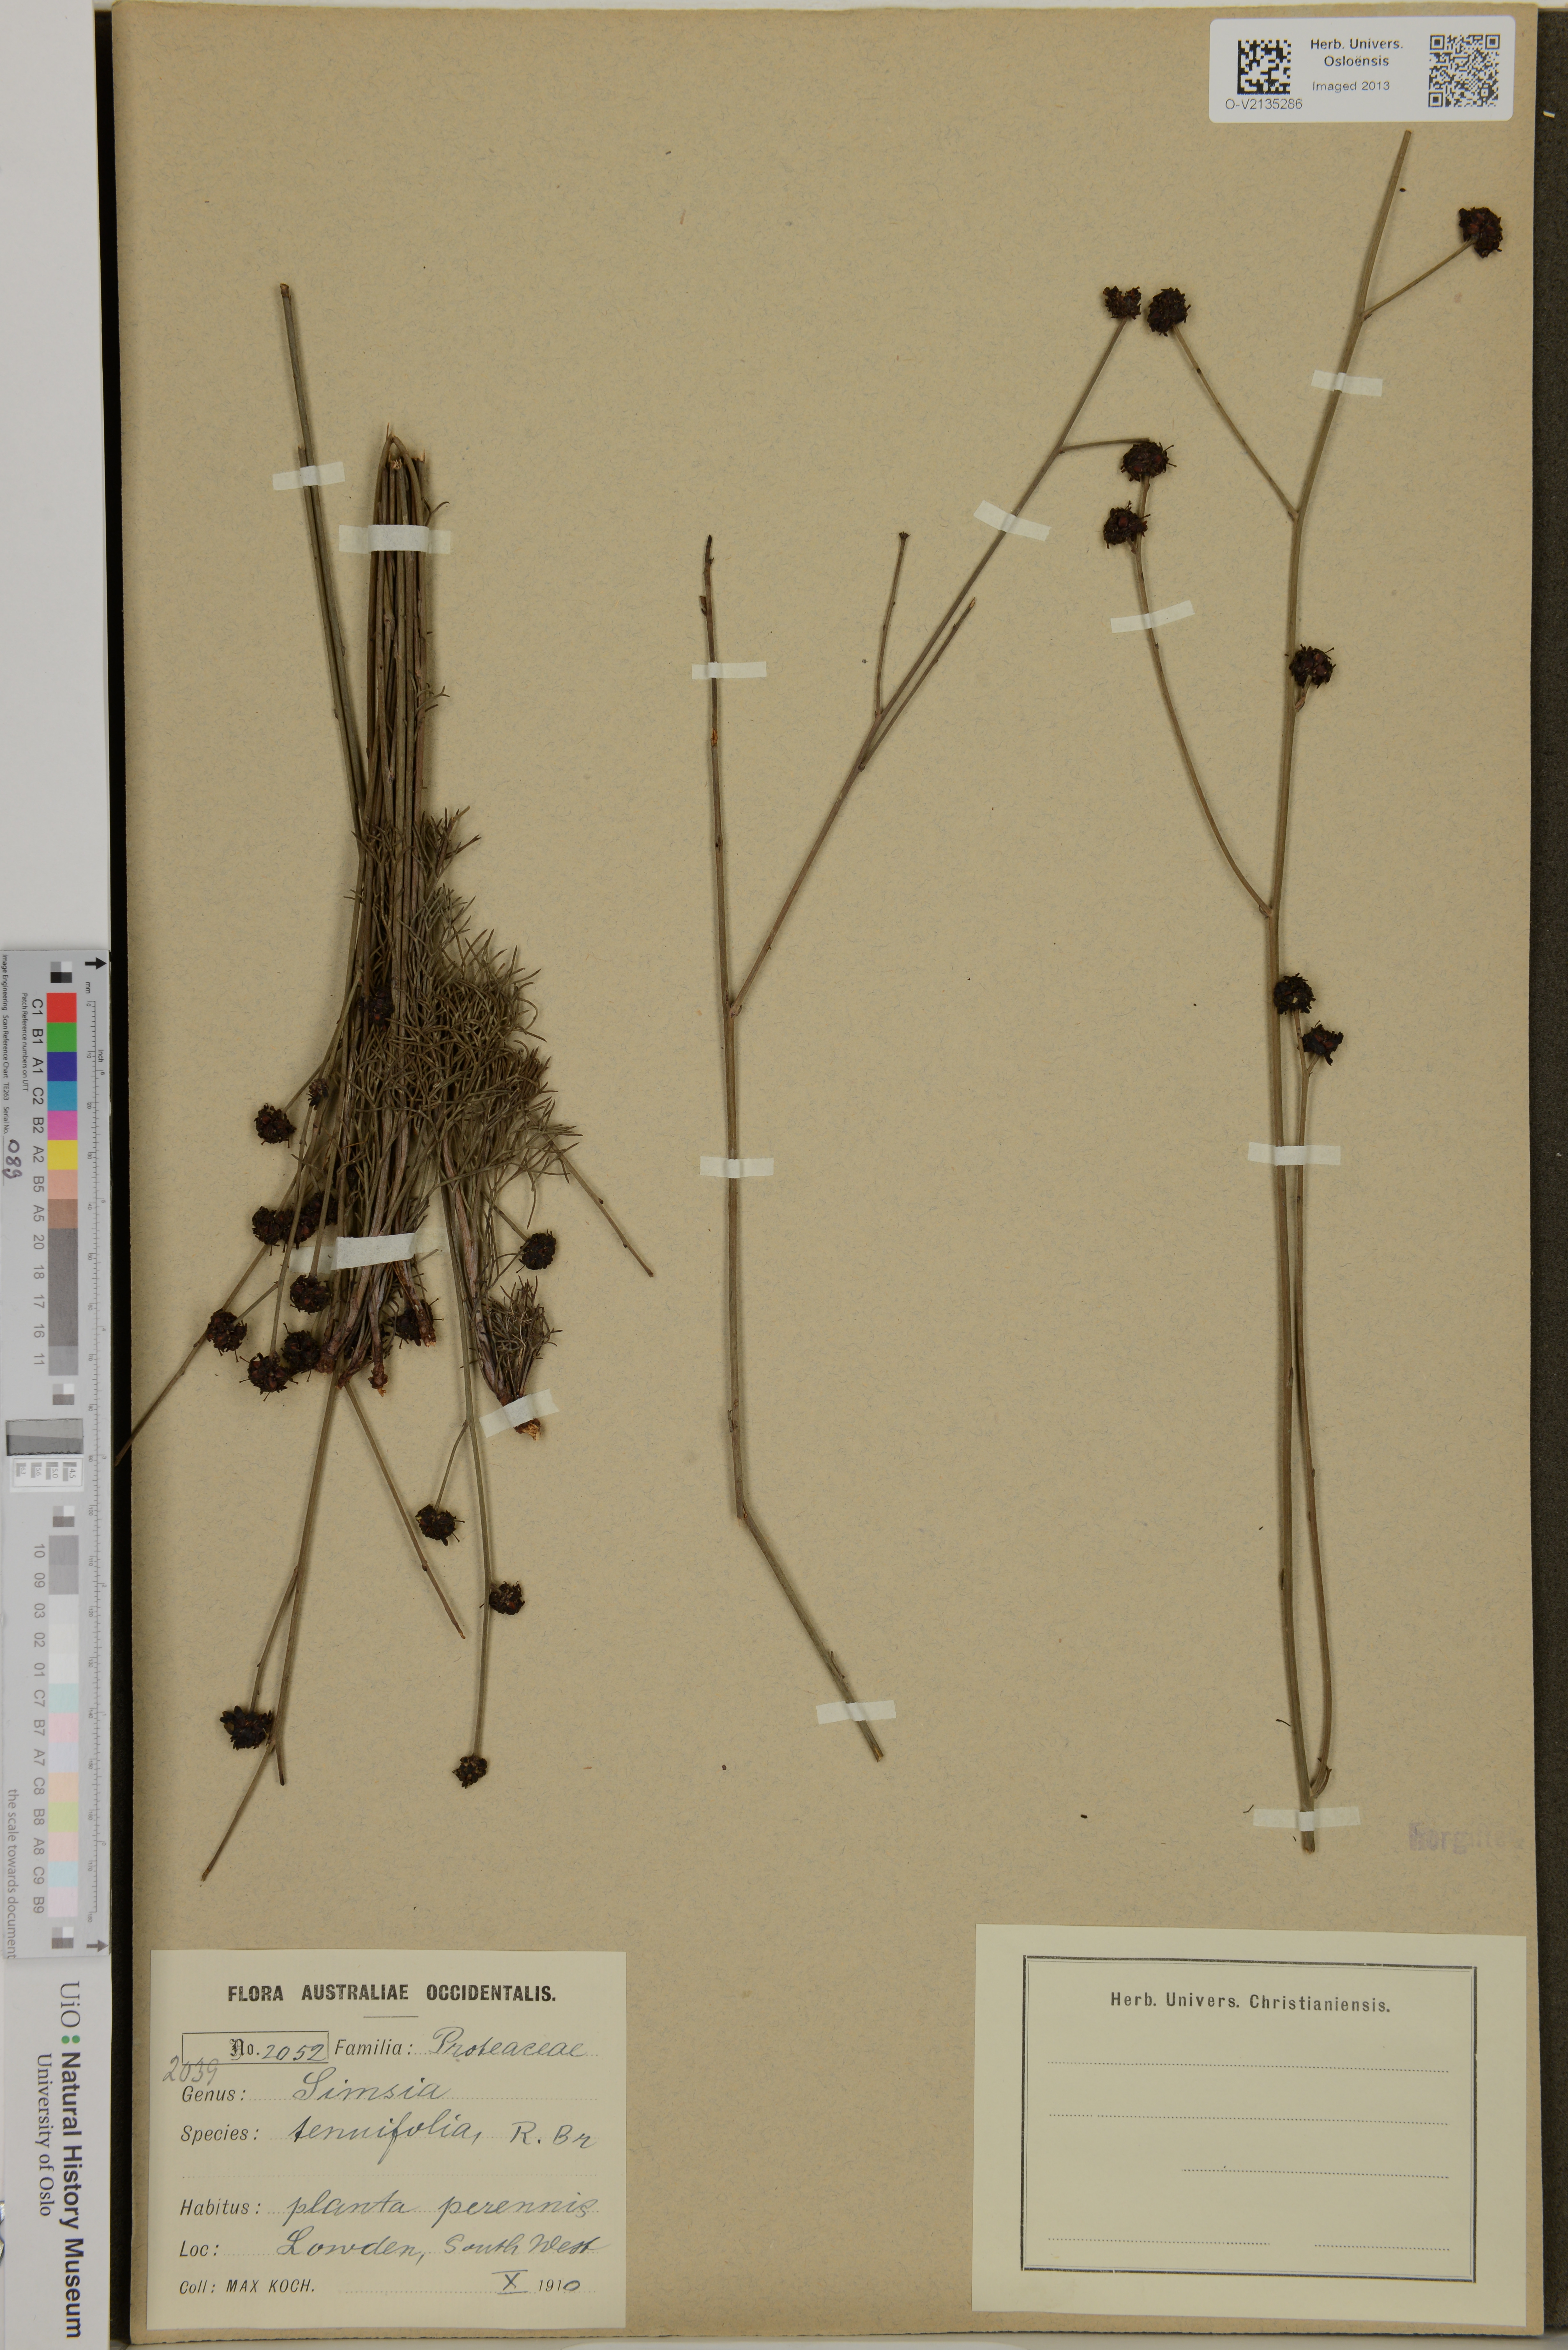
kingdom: Plantae
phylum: Tracheophyta
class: Magnoliopsida
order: Proteales
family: Proteaceae
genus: Stirlingia
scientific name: Stirlingia tenuifolia
